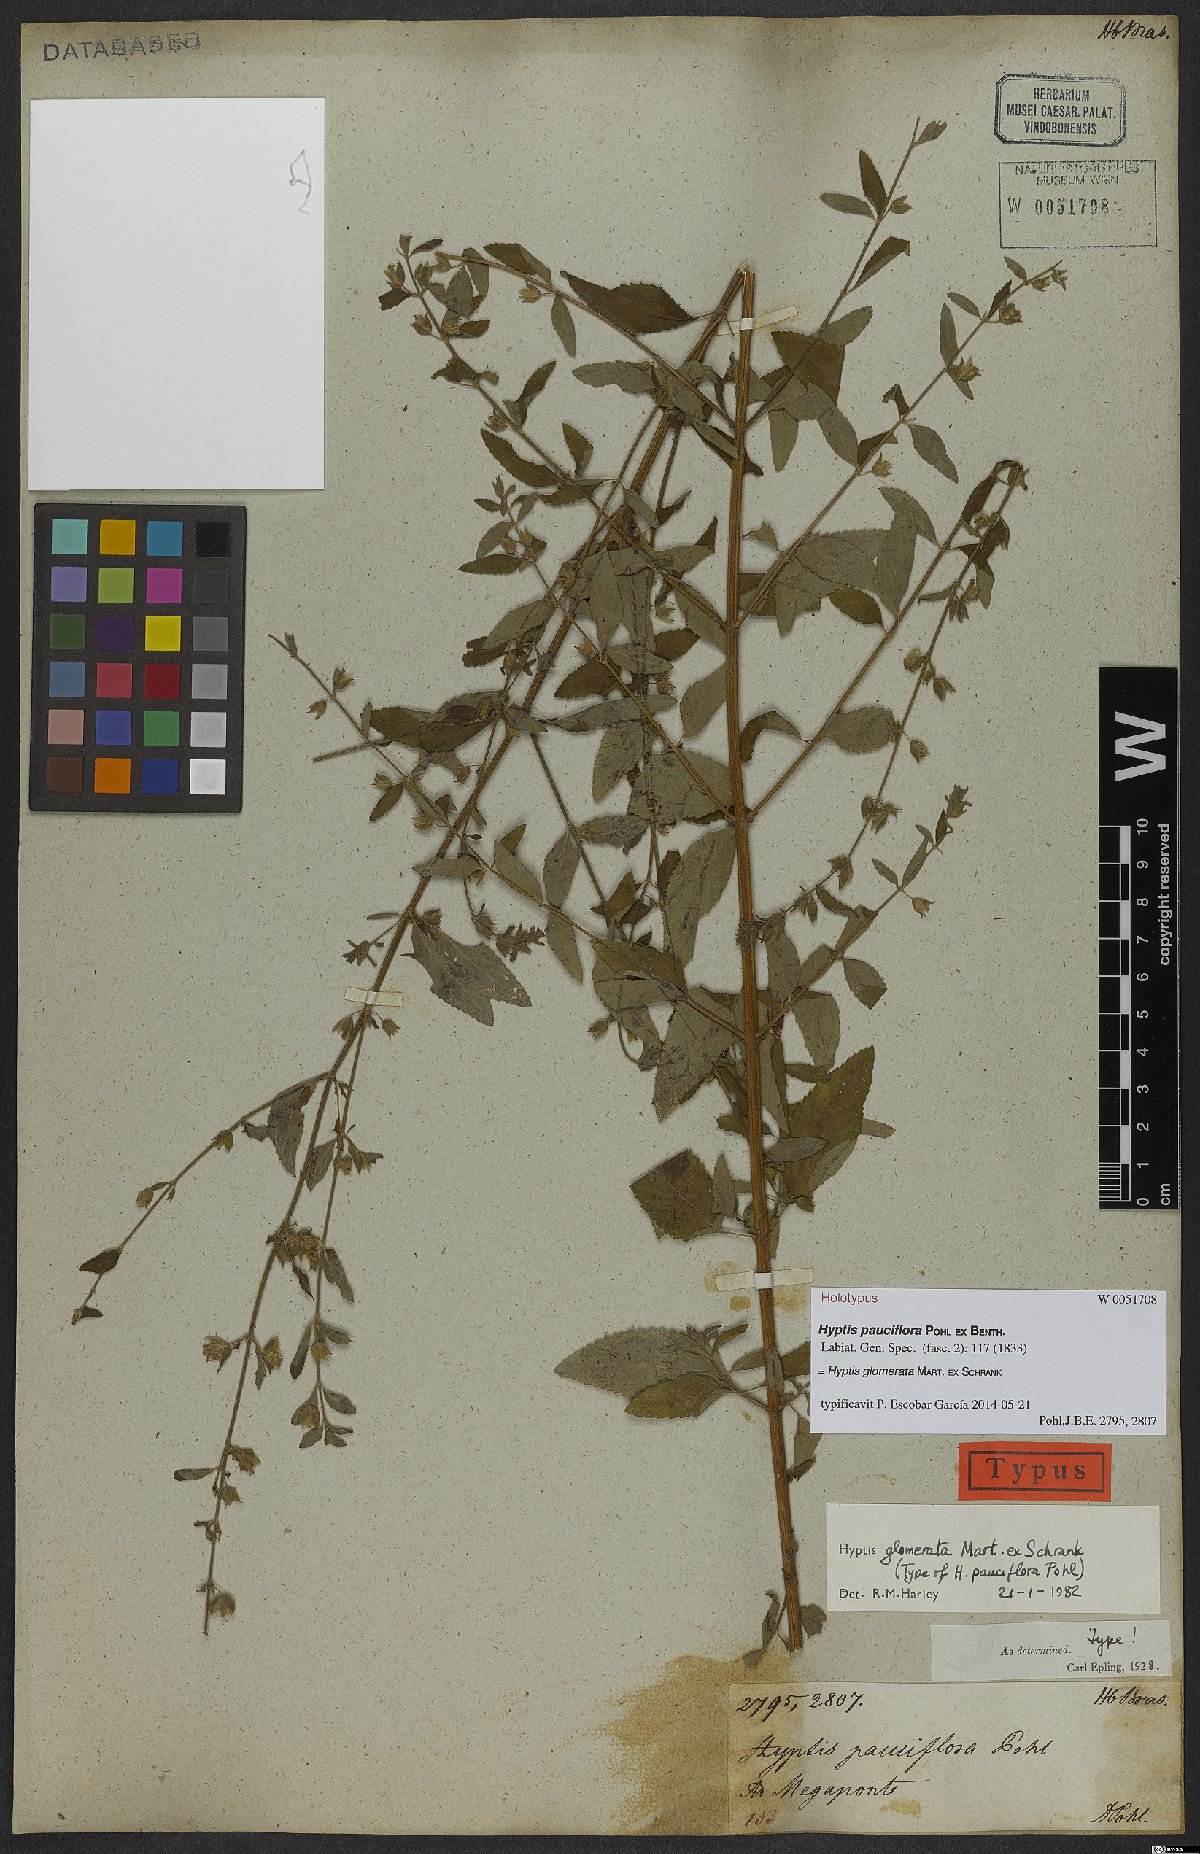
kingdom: Plantae
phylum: Tracheophyta
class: Magnoliopsida
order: Lamiales
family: Lamiaceae
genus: Oocephalus
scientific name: Oocephalus oppositiflorus
